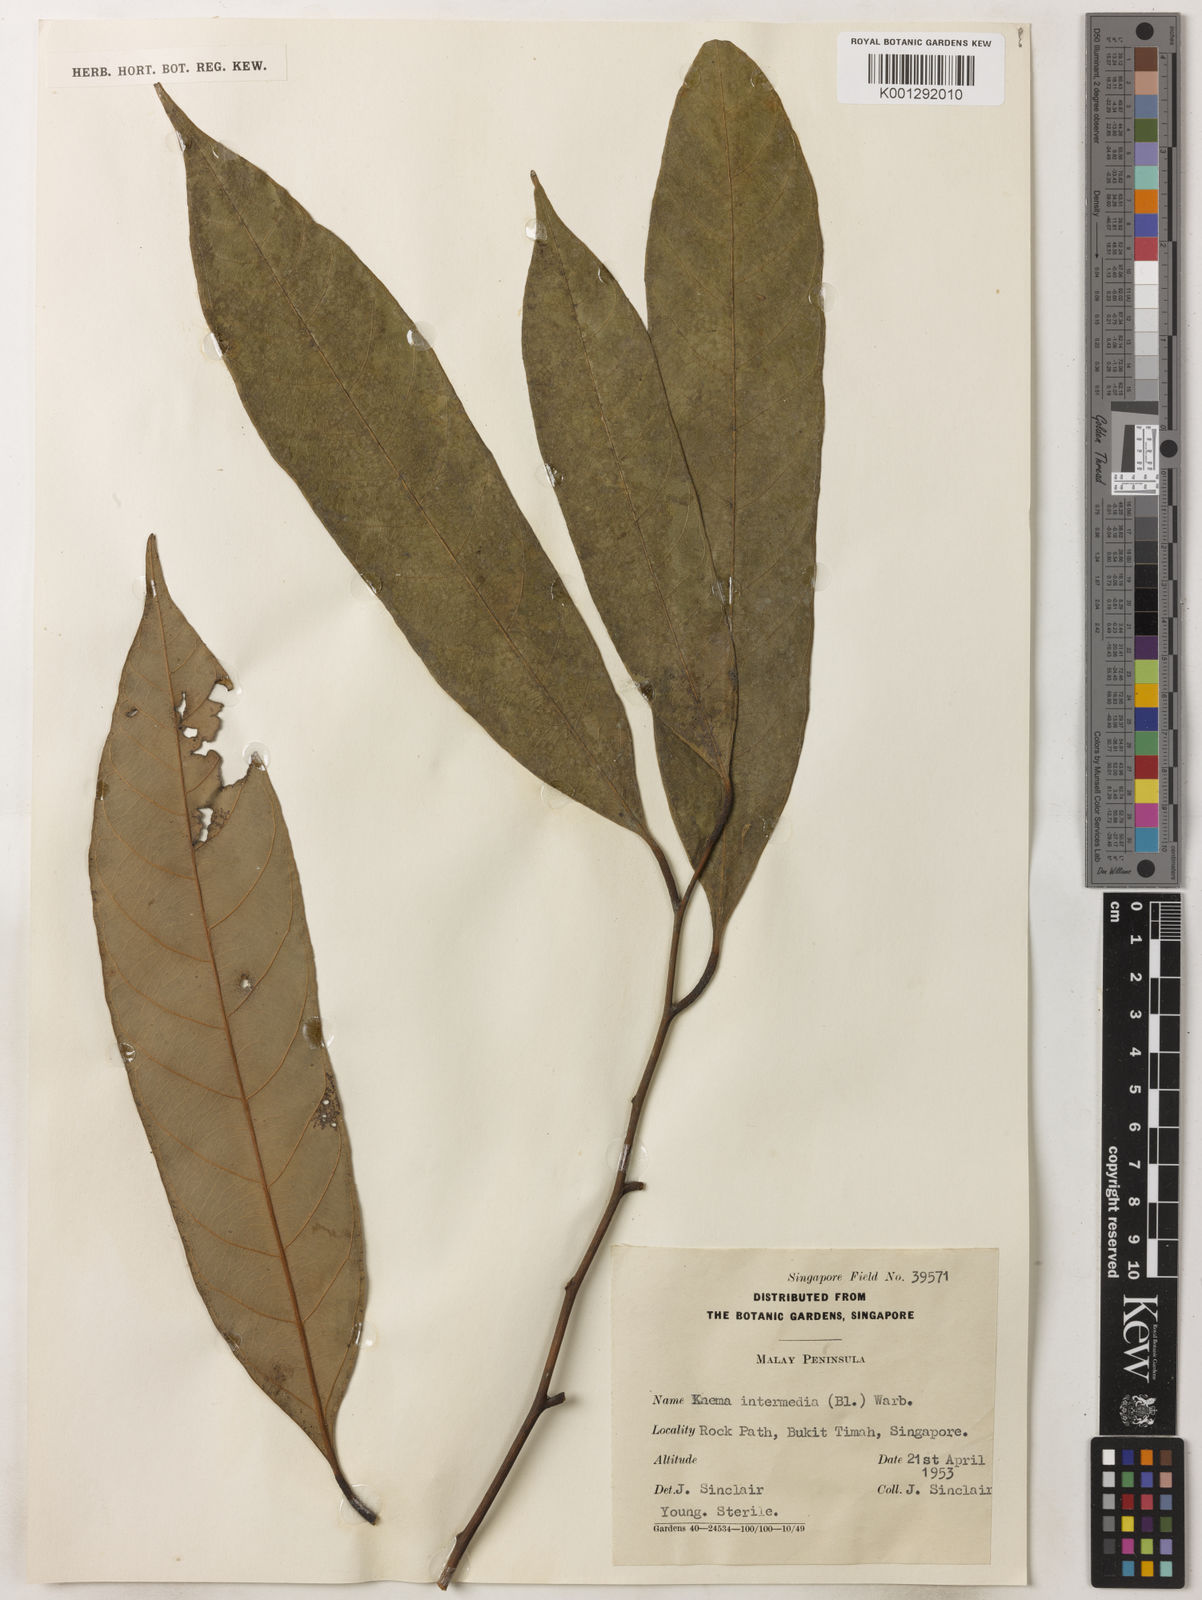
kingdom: Plantae
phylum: Tracheophyta
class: Magnoliopsida
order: Magnoliales
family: Myristicaceae
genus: Knema
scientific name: Knema intermedia
